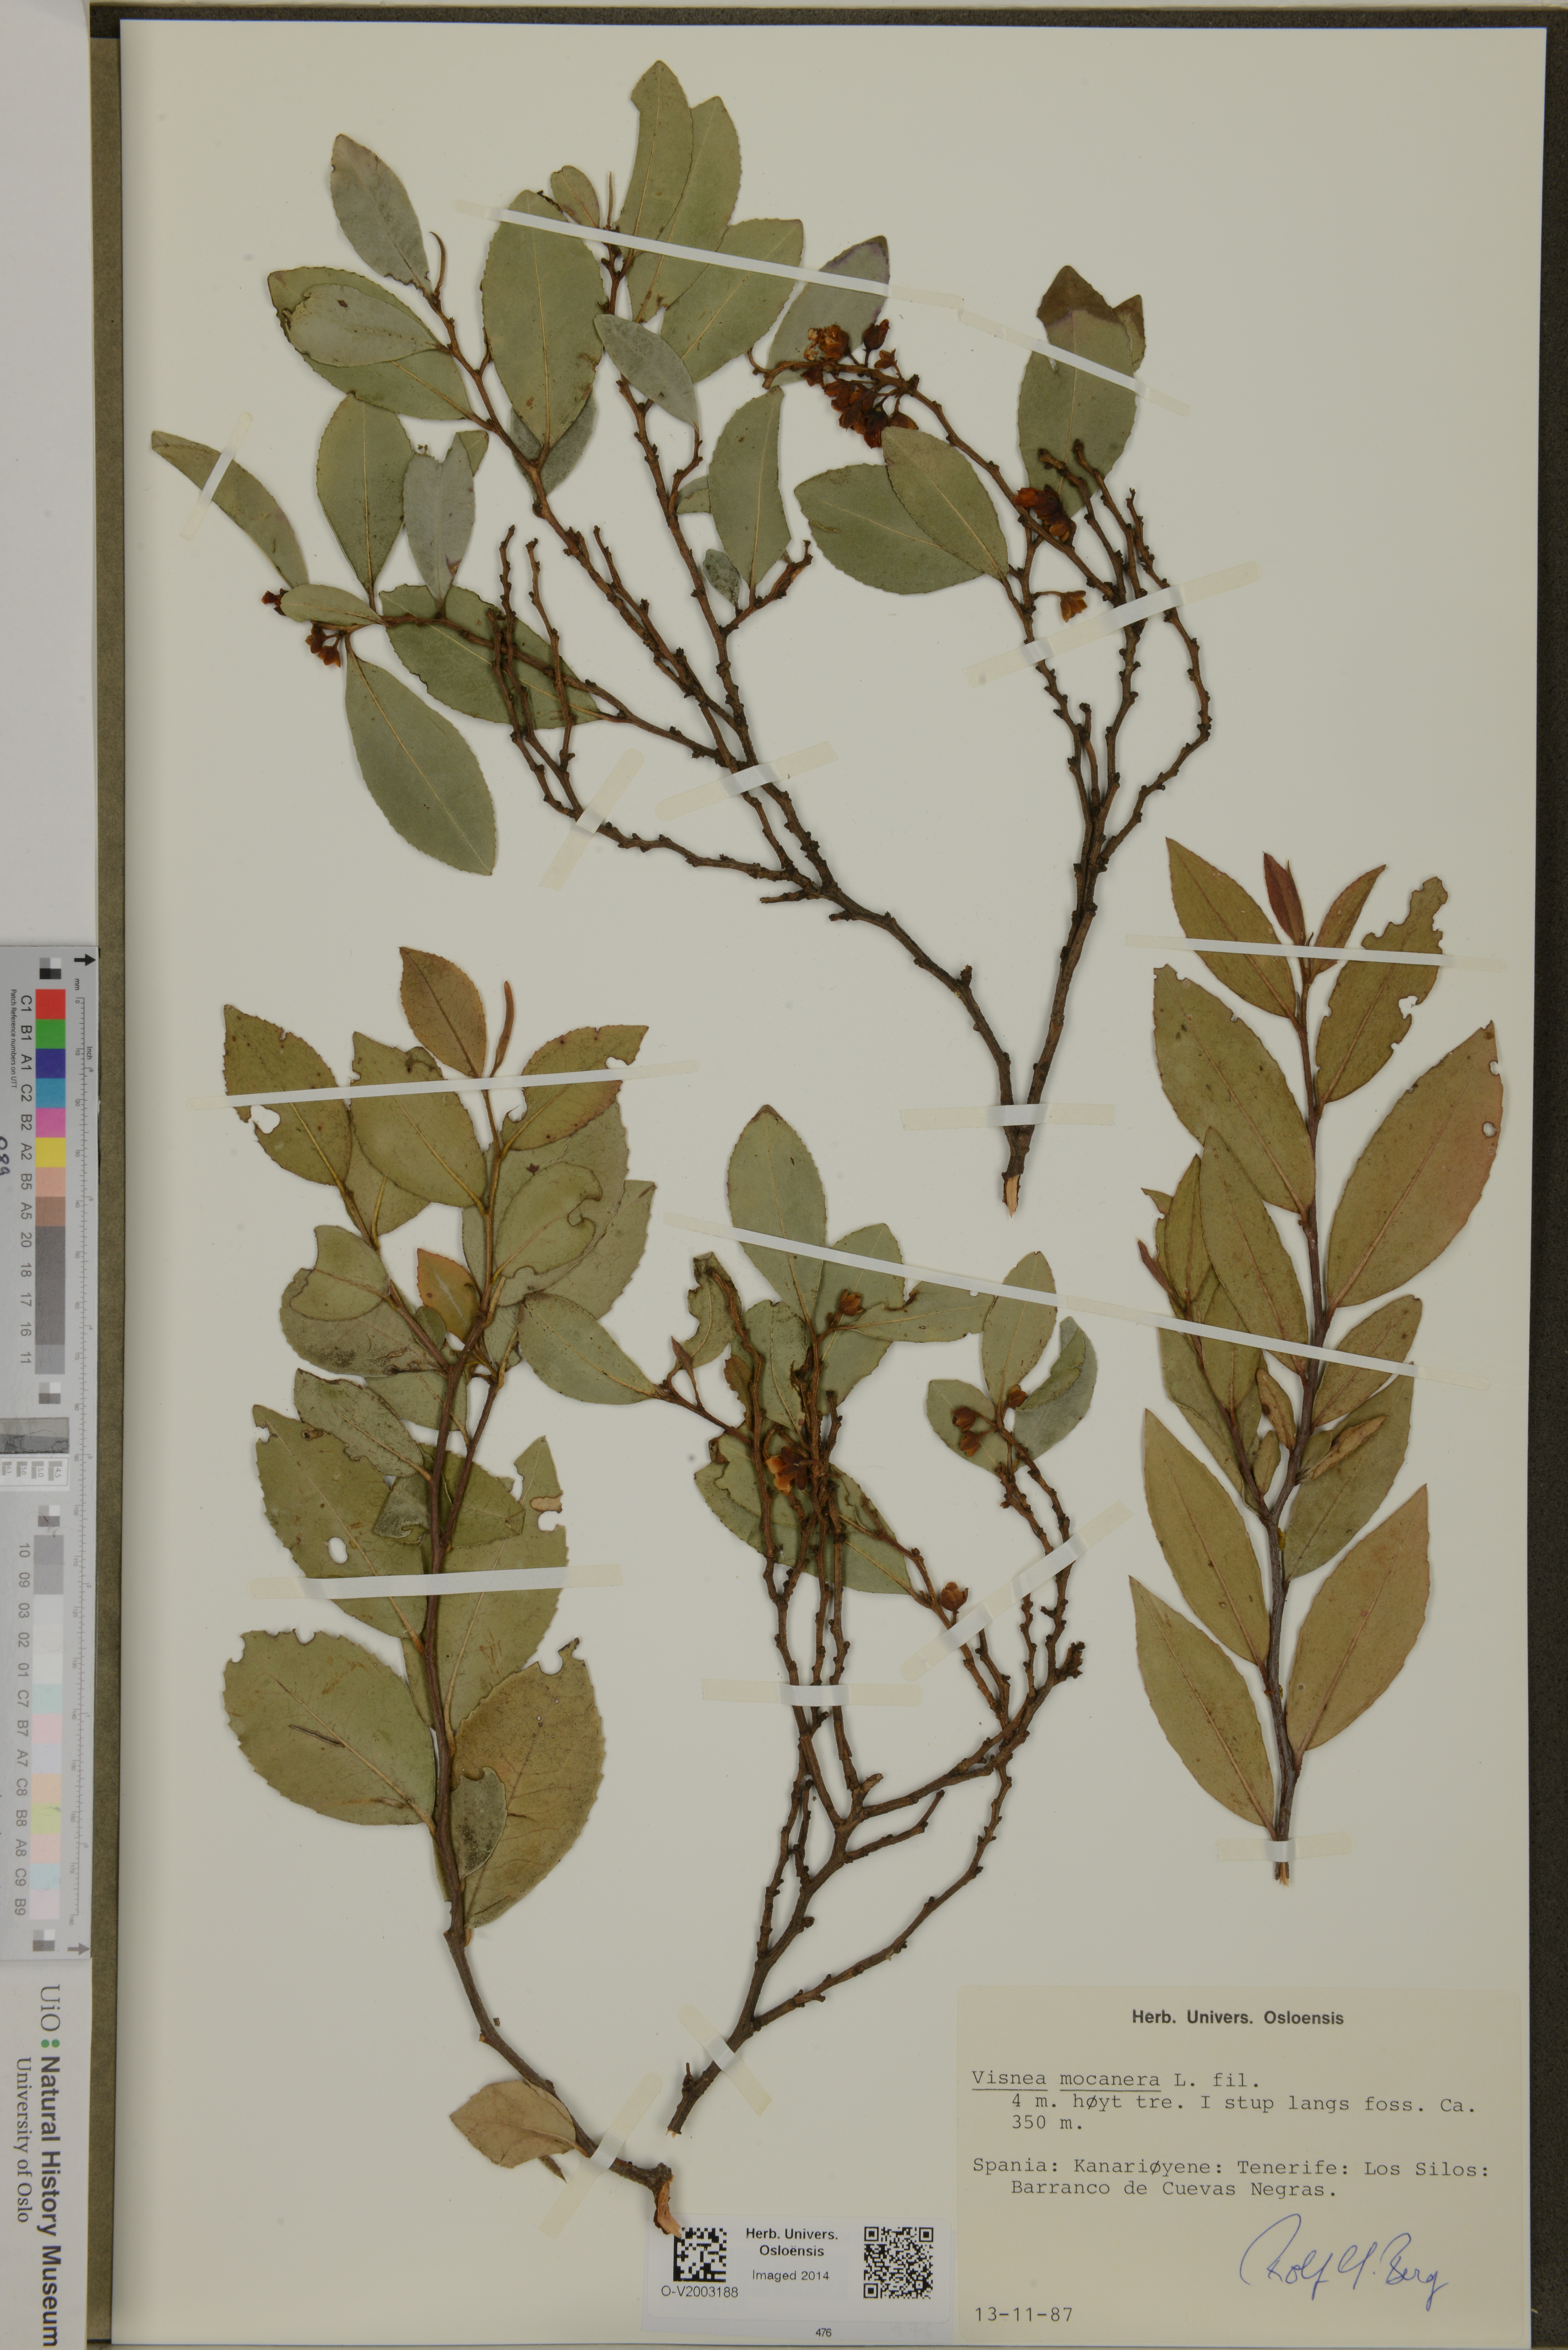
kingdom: Plantae
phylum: Tracheophyta
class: Magnoliopsida
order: Ericales
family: Pentaphylacaceae
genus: Visnea
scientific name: Visnea mocanera
